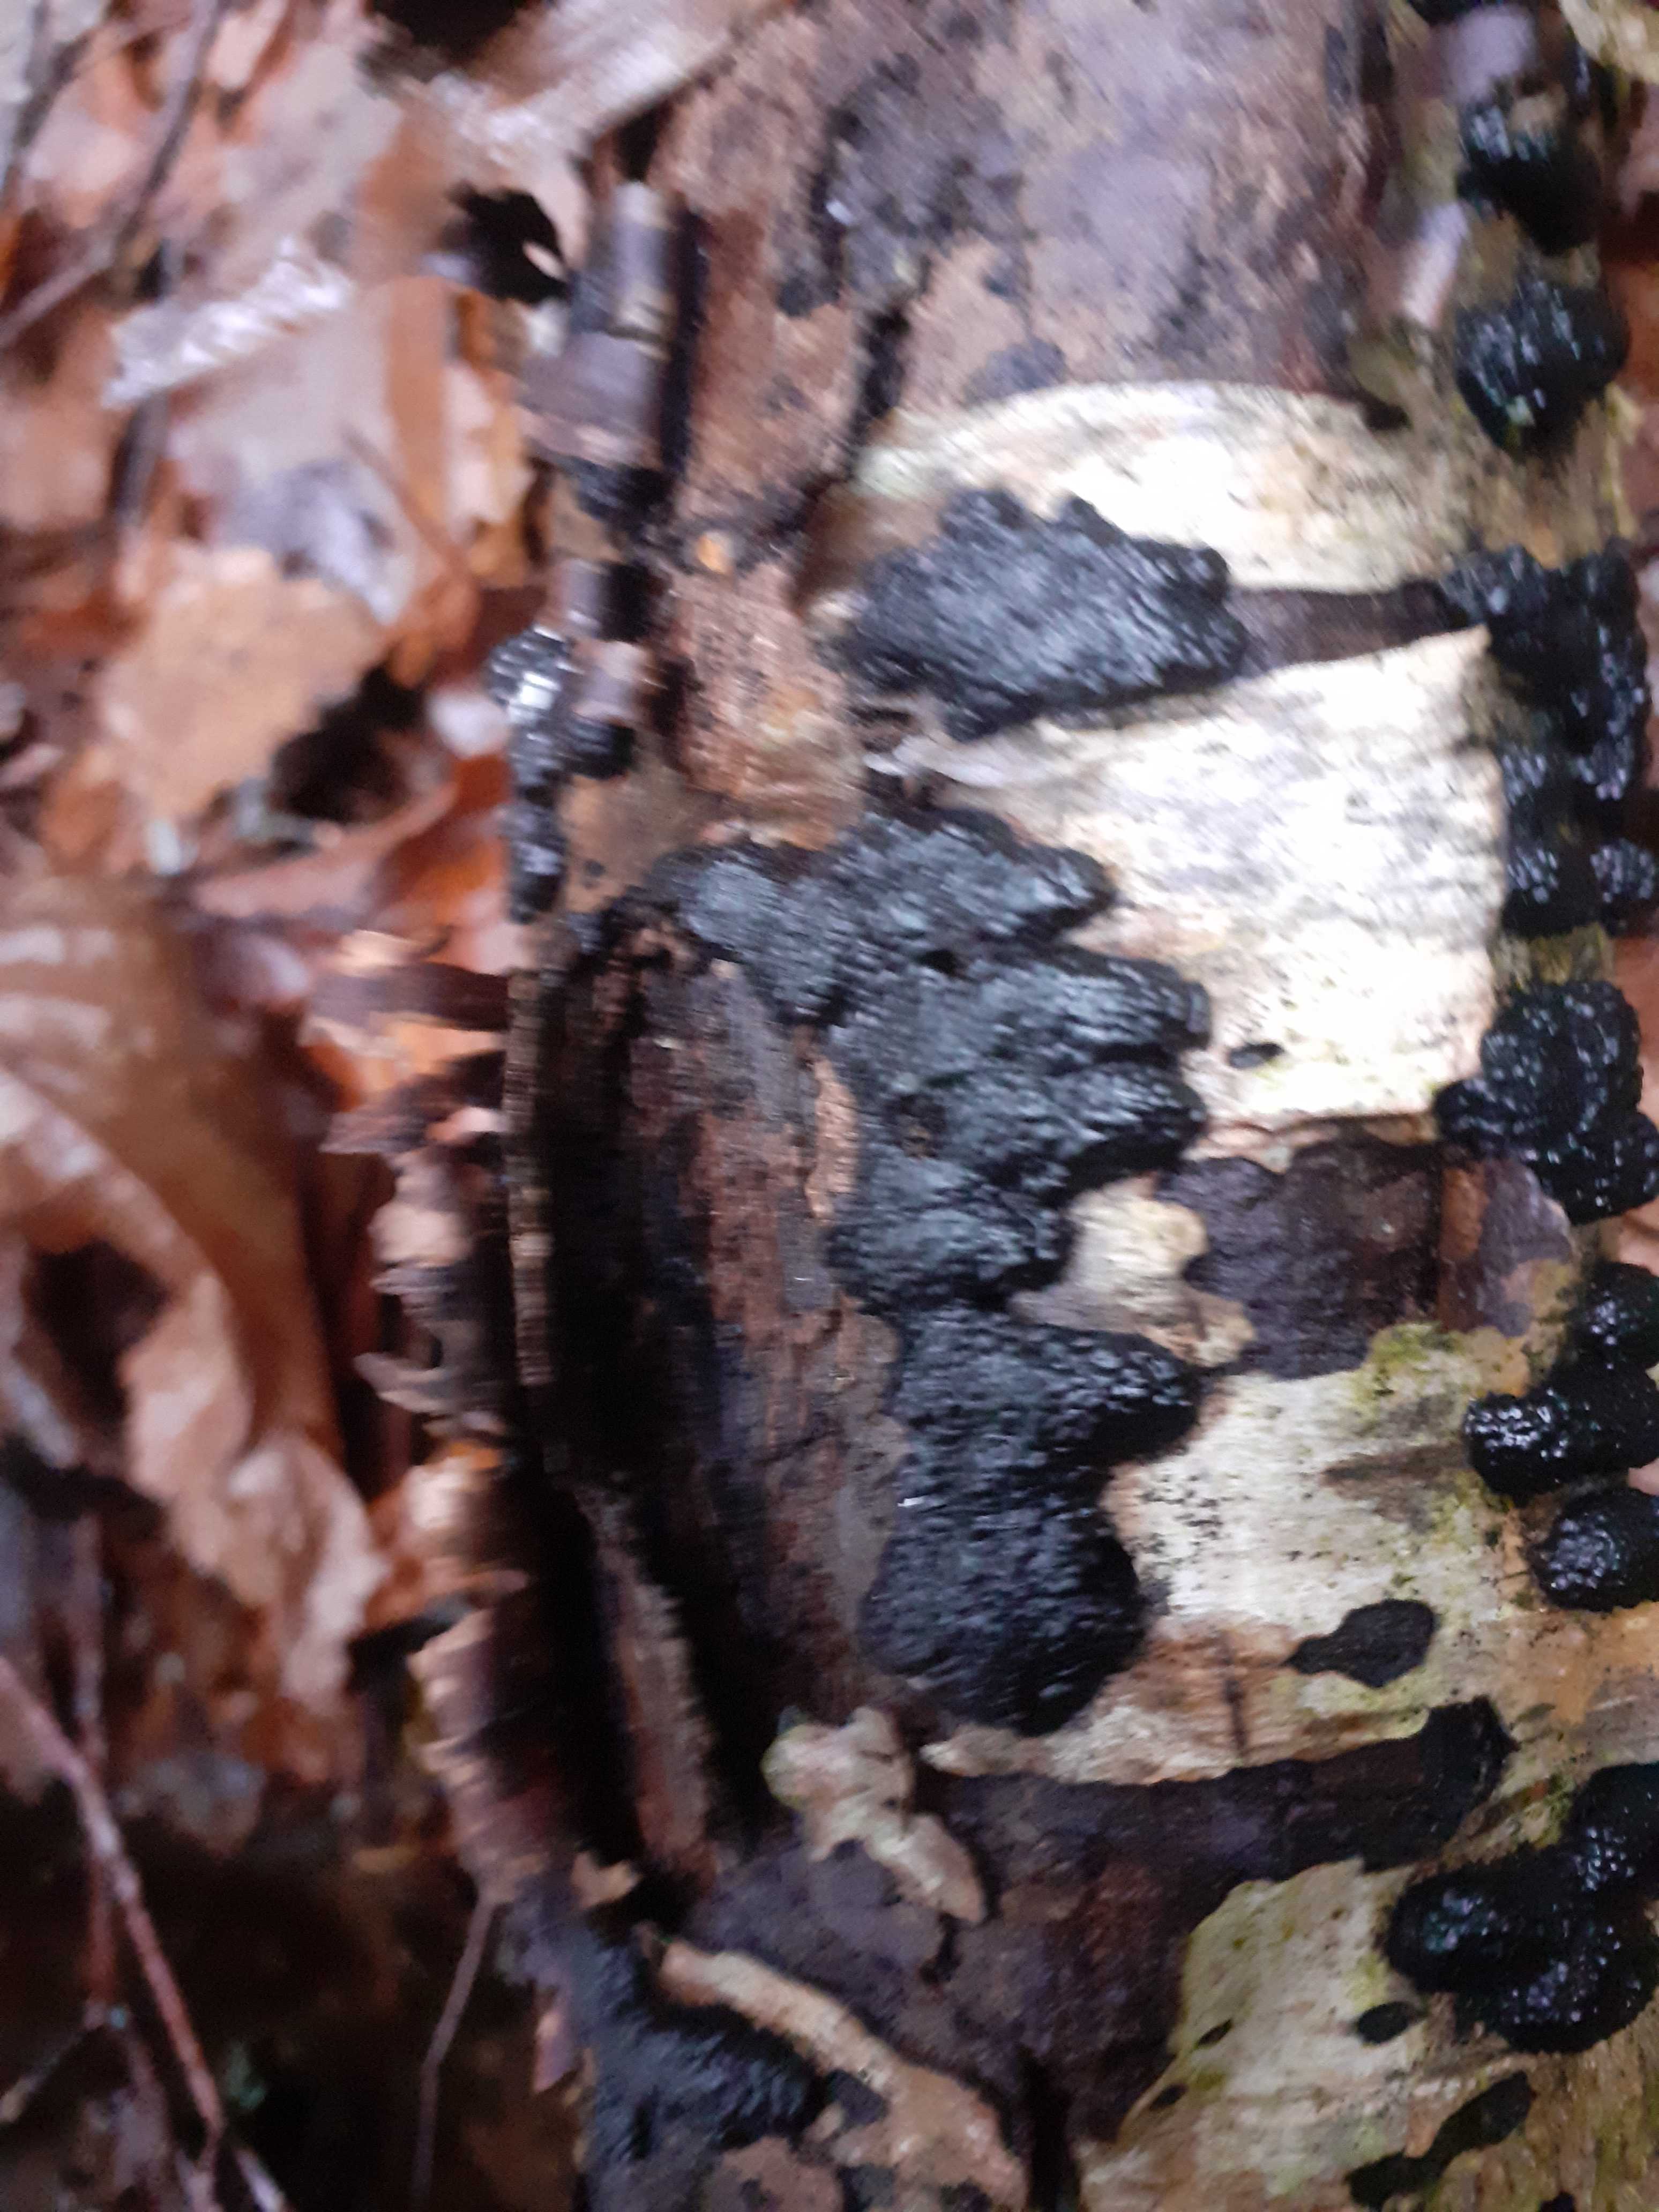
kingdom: Fungi
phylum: Ascomycota
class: Sordariomycetes
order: Xylariales
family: Hypoxylaceae
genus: Jackrogersella
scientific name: Jackrogersella multiformis
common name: foranderlig kulbær
